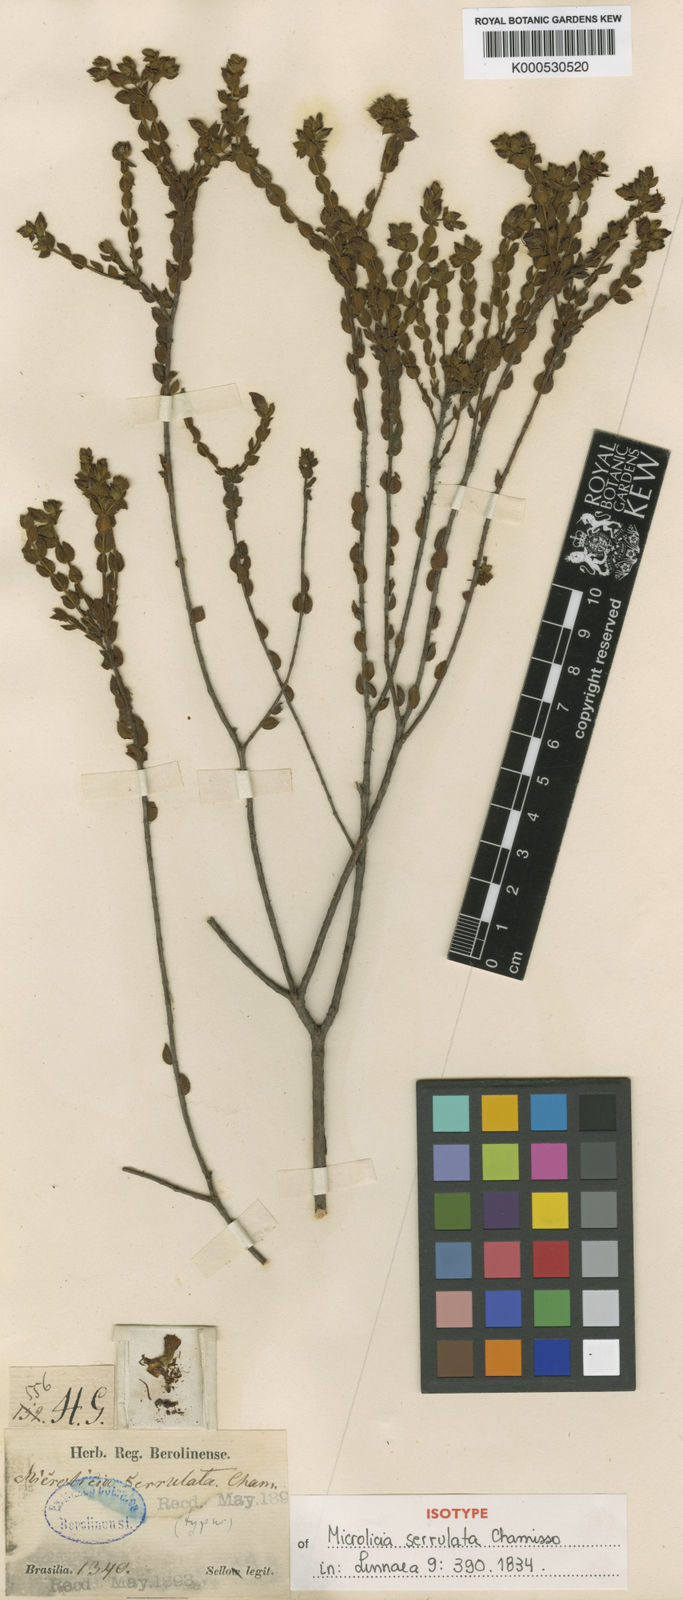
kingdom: Plantae
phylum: Tracheophyta
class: Magnoliopsida
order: Myrtales
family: Melastomataceae
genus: Microlicia
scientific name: Microlicia serrulata
